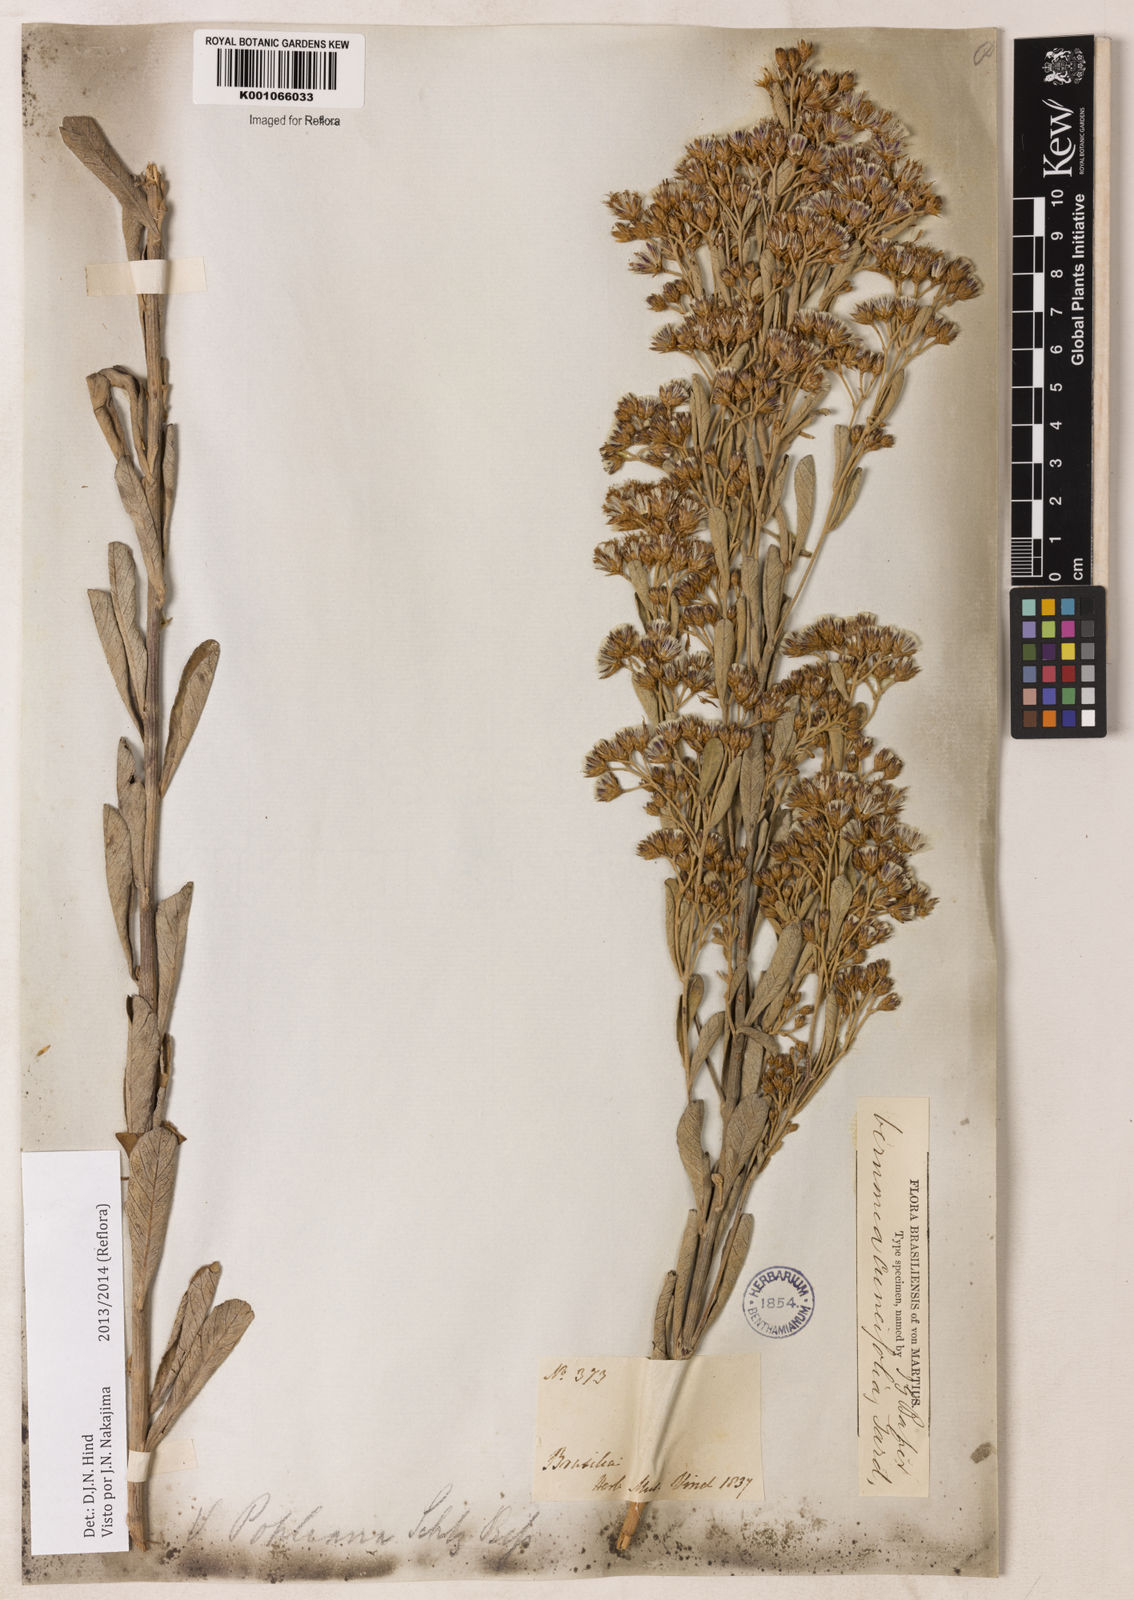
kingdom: Plantae
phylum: Tracheophyta
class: Magnoliopsida
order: Asterales
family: Asteraceae
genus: Vernonanthura
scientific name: Vernonanthura cuneifolia
